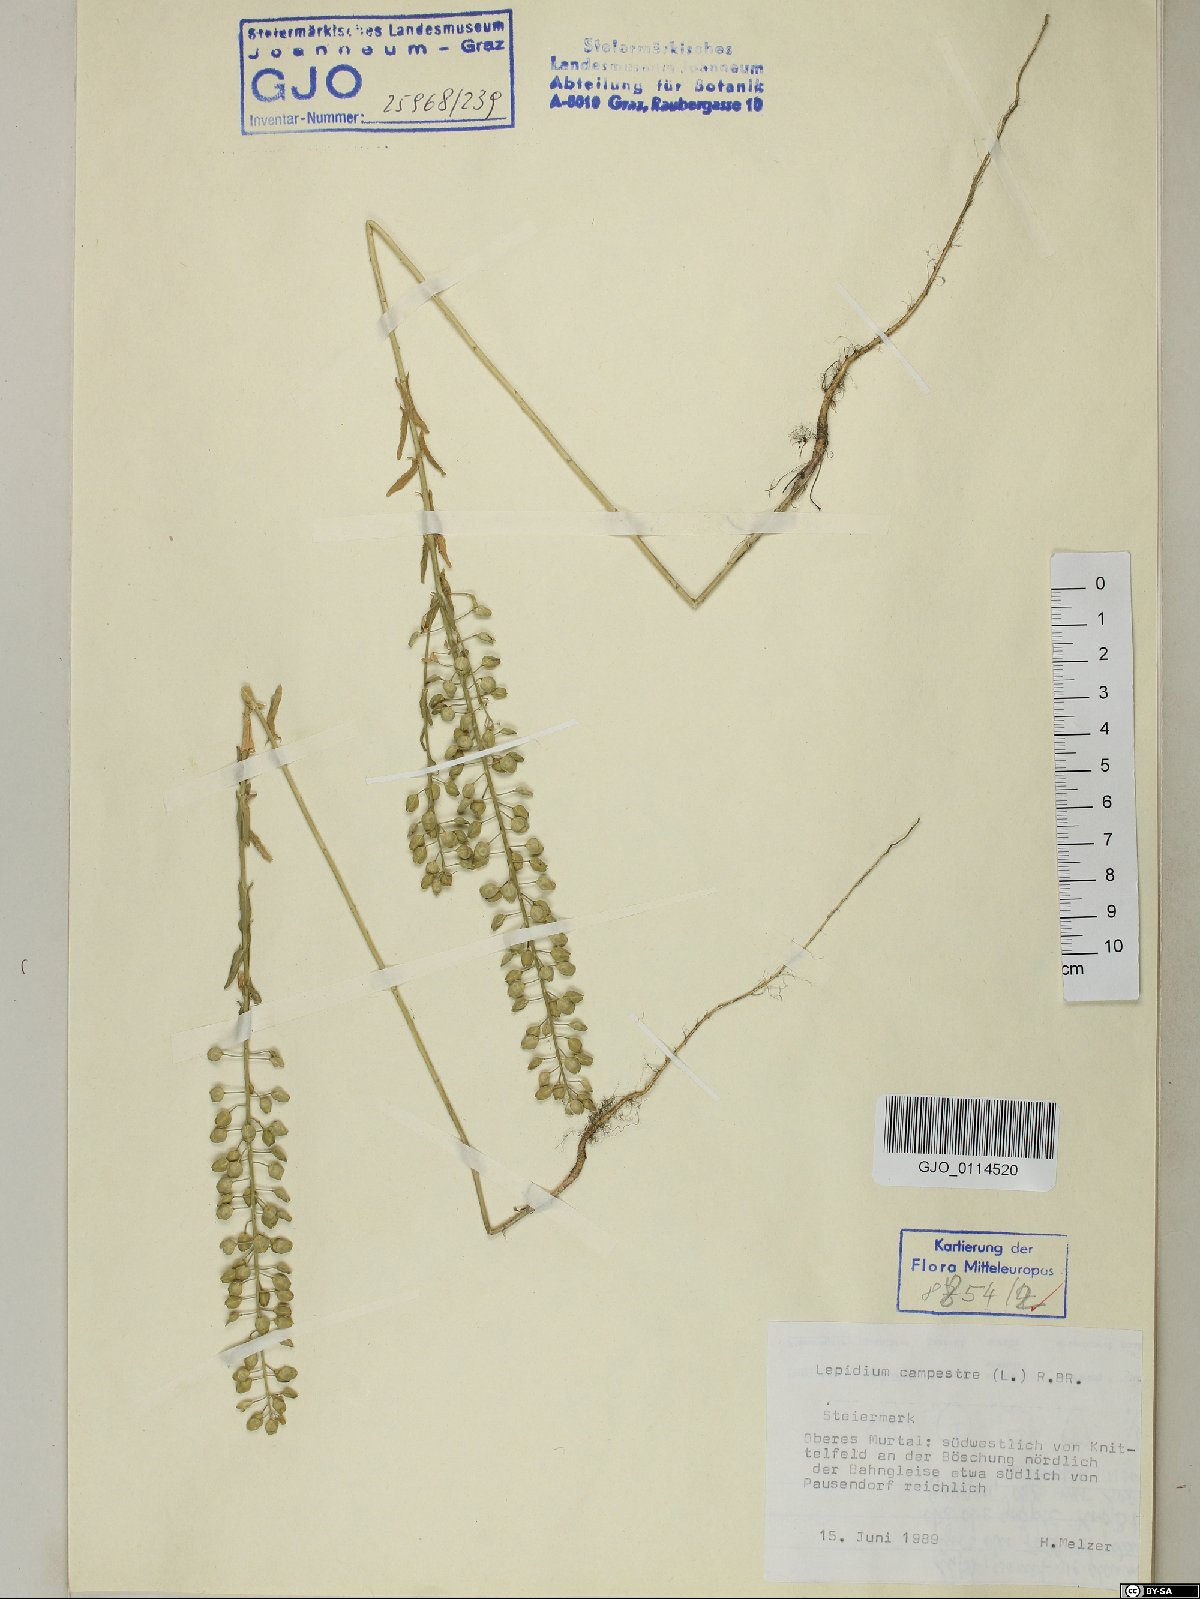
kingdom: Plantae
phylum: Tracheophyta
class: Magnoliopsida
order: Brassicales
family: Brassicaceae
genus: Lepidium
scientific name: Lepidium campestre
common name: Field pepperwort
